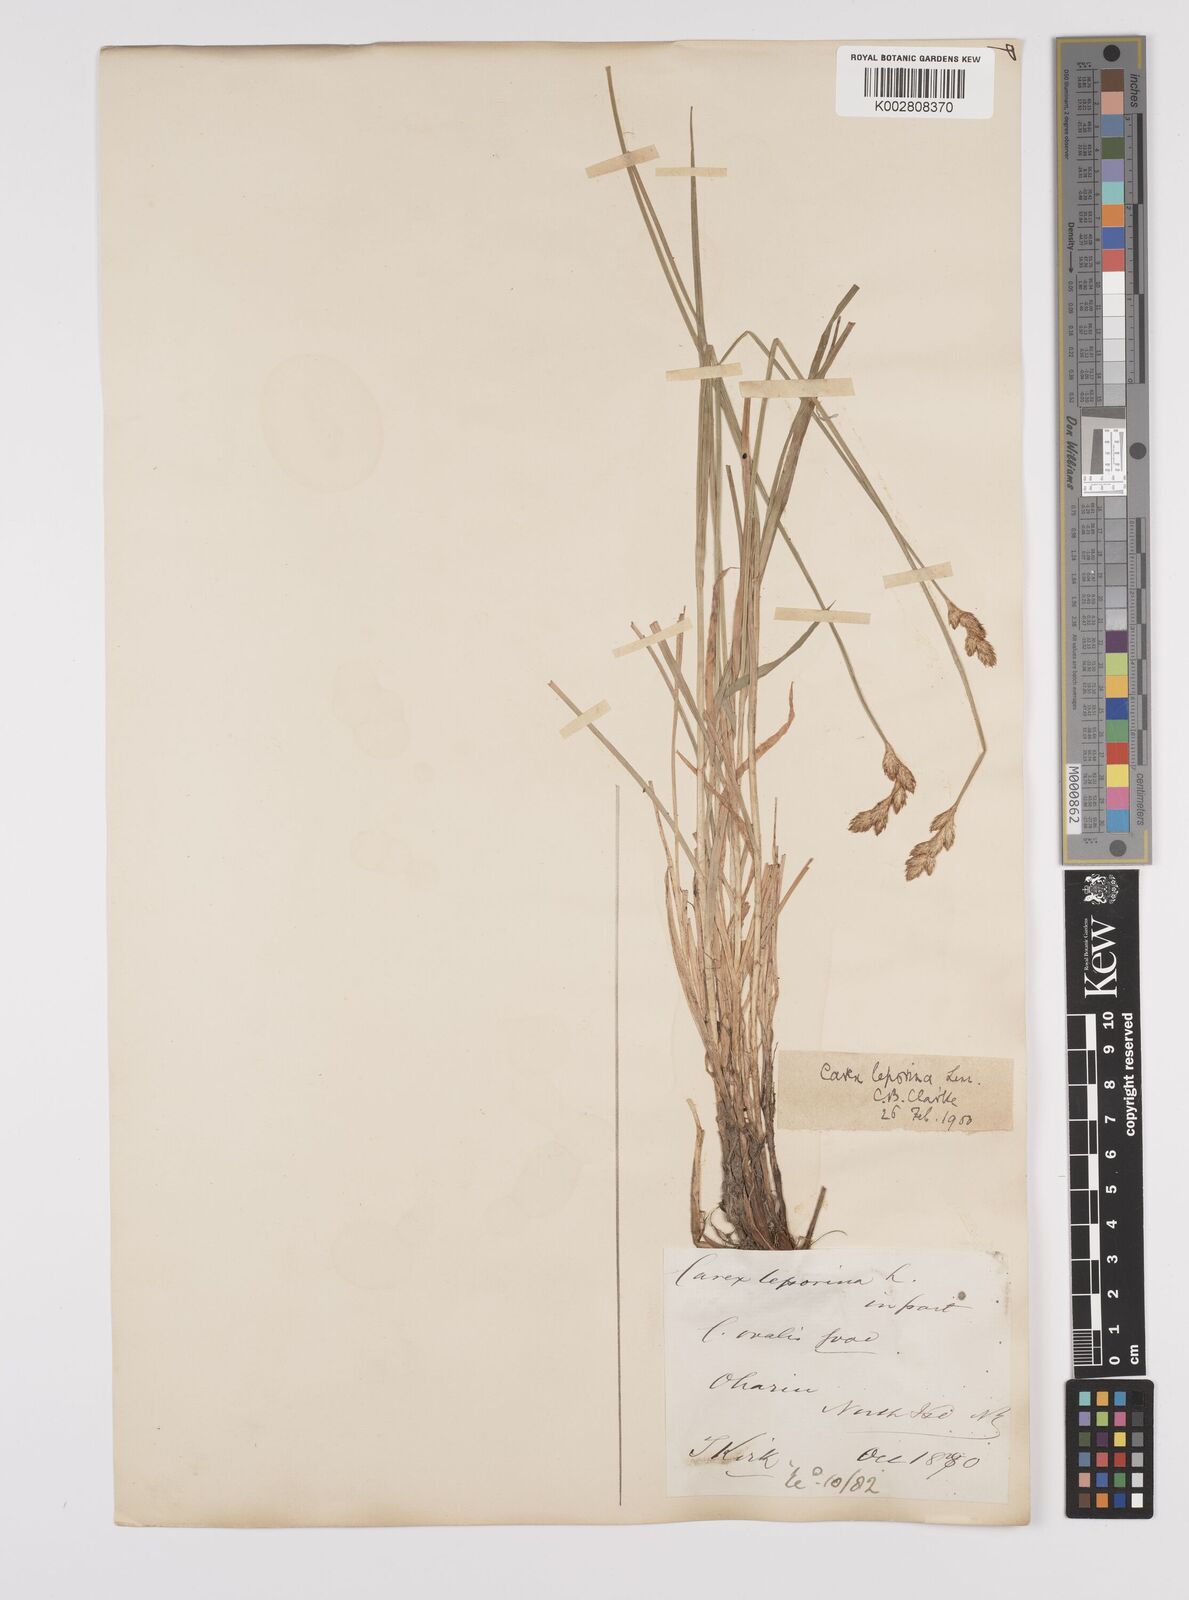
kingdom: Plantae
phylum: Tracheophyta
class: Liliopsida
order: Poales
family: Cyperaceae
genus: Carex
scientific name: Carex leporina
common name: Oval sedge
